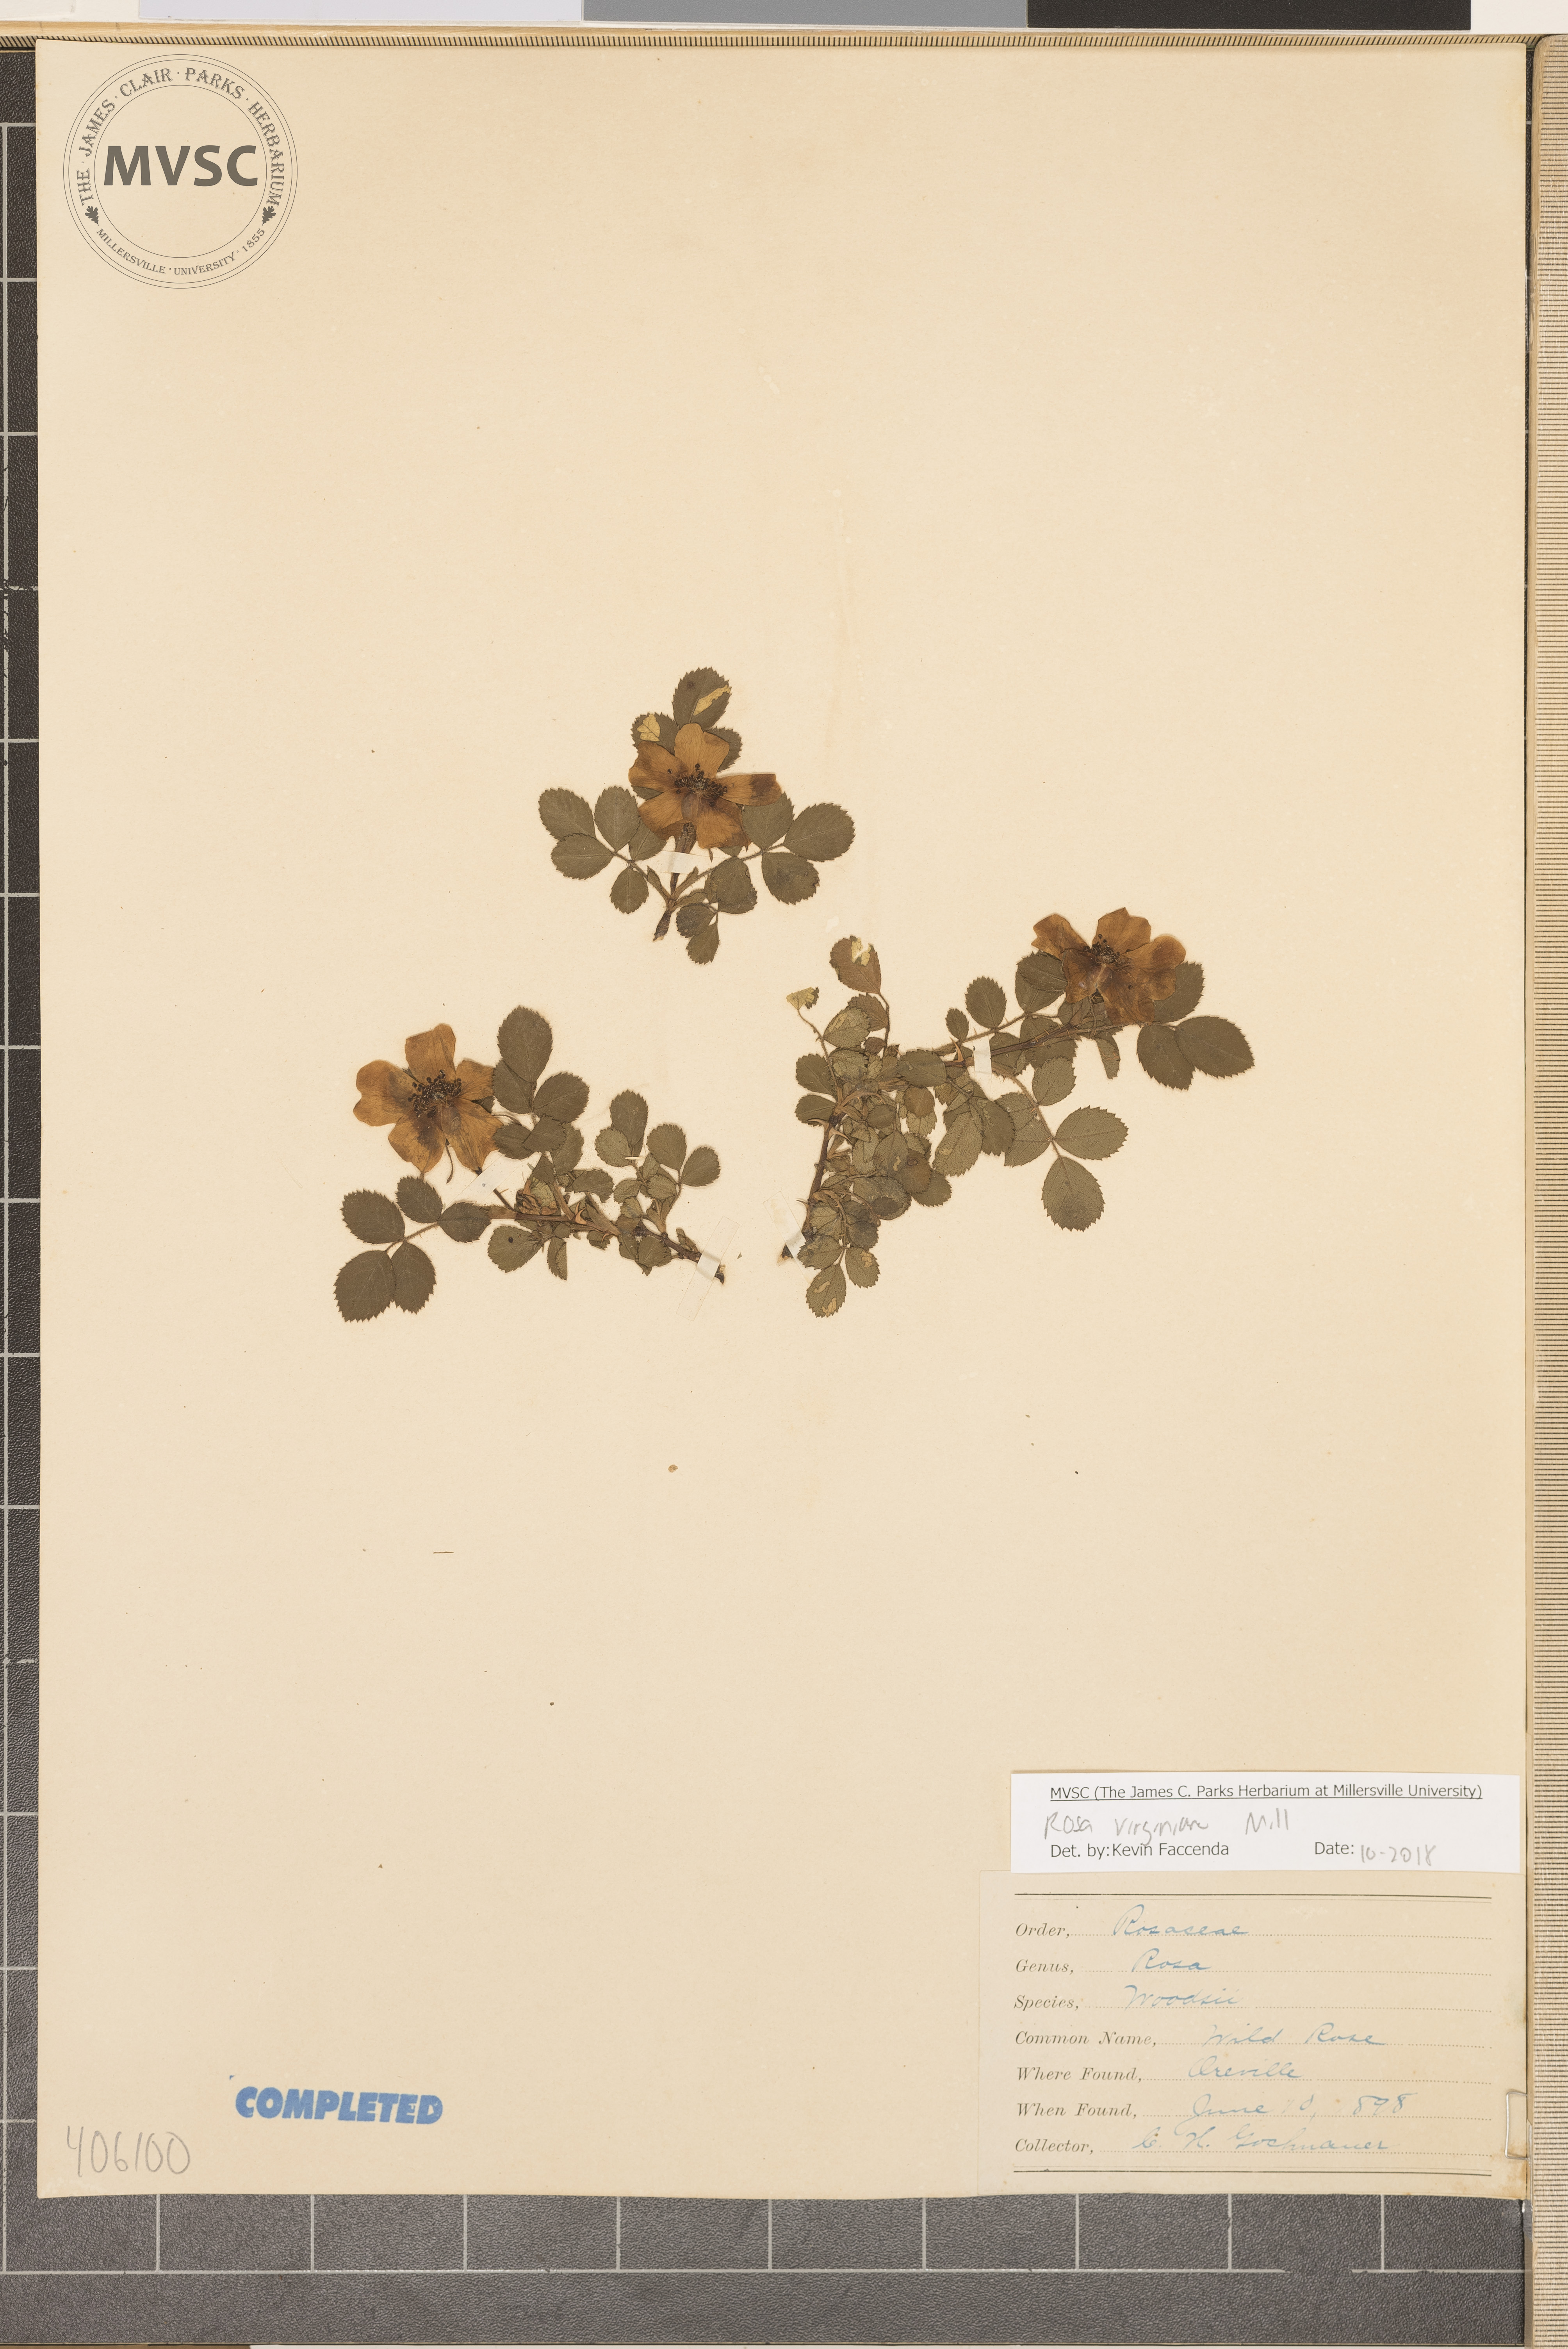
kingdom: Plantae
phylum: Tracheophyta
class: Magnoliopsida
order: Rosales
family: Rosaceae
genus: Rosa
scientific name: Rosa
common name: wild rose
